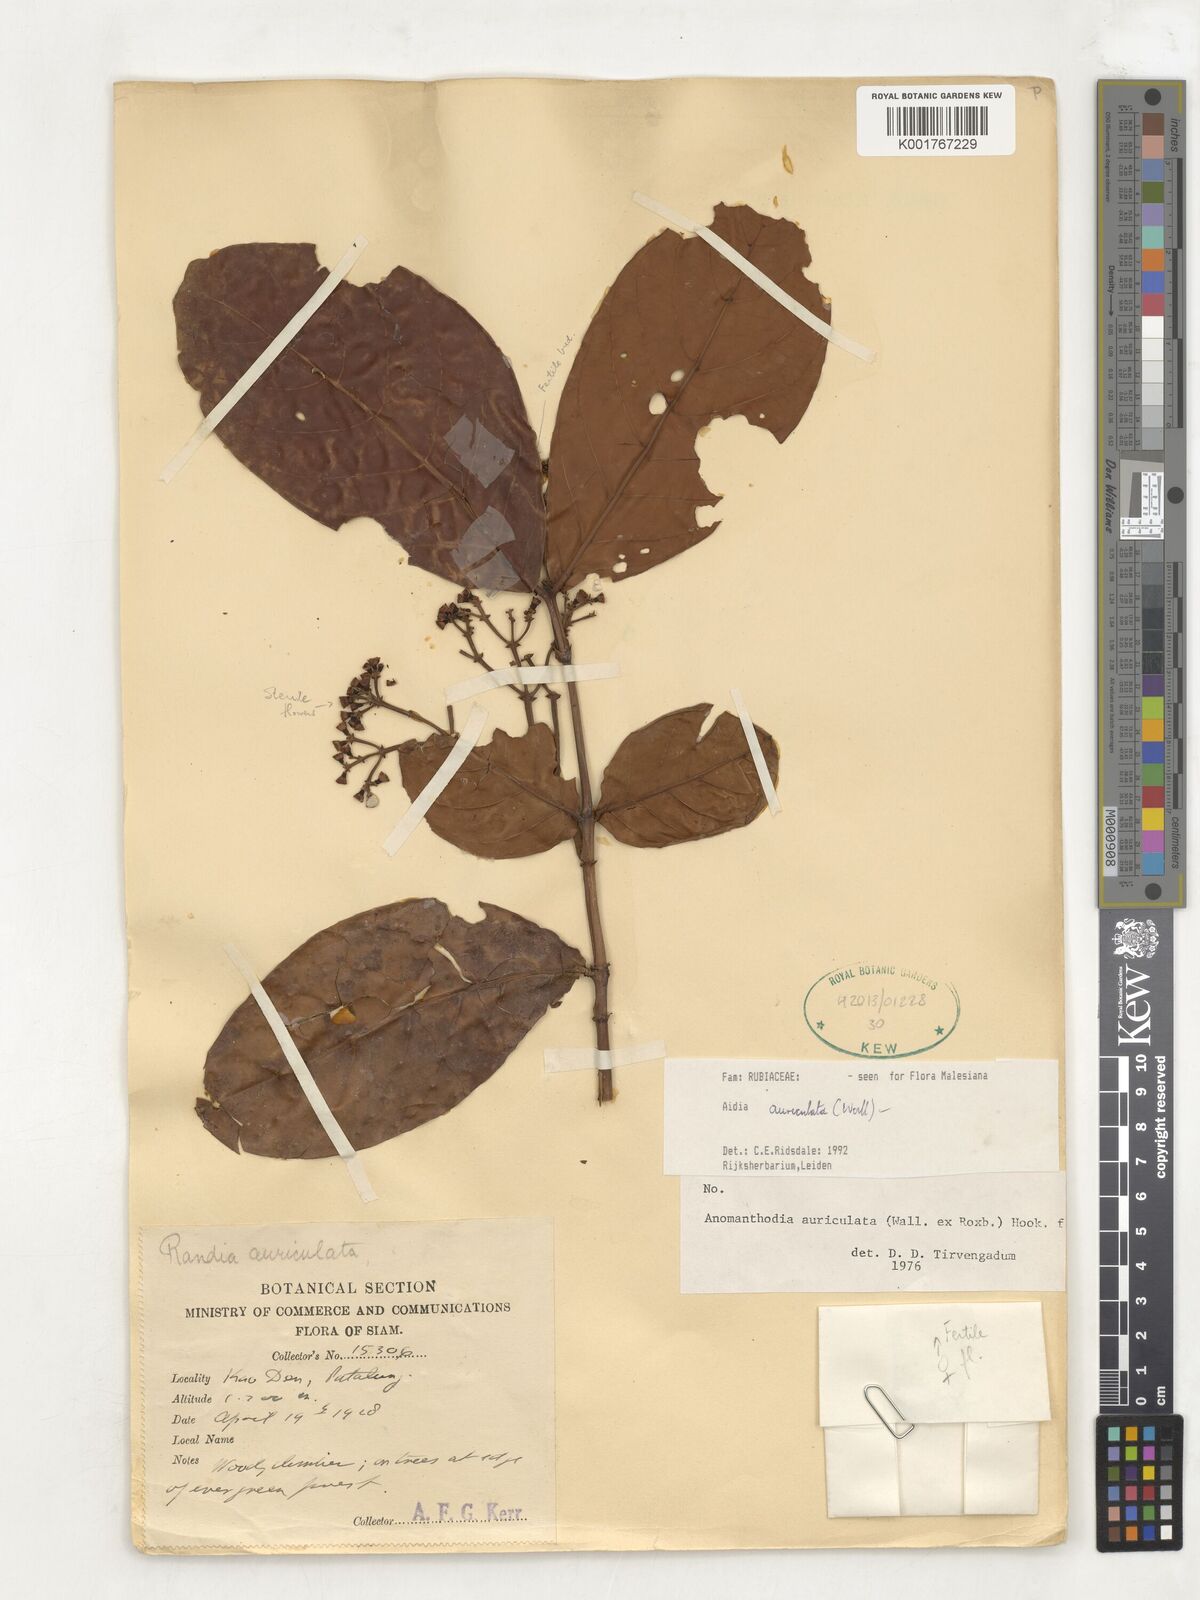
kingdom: Plantae
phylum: Tracheophyta
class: Magnoliopsida
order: Gentianales
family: Rubiaceae
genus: Aidia
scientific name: Aidia auriculata
